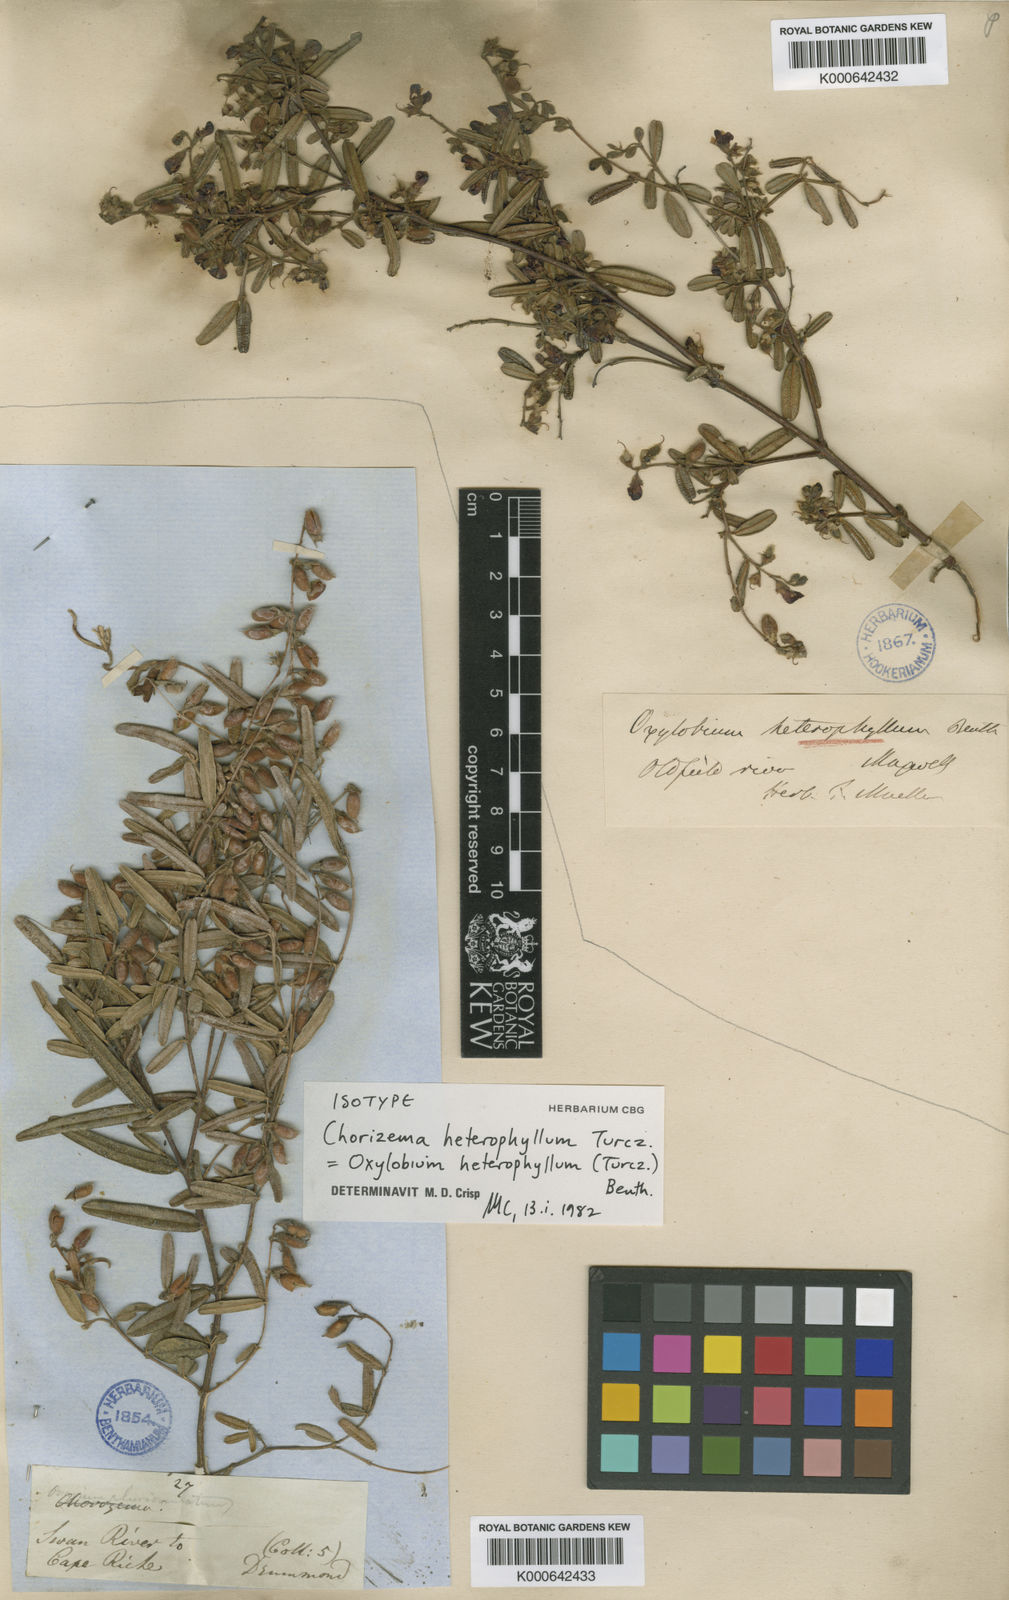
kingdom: Plantae
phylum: Tracheophyta
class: Magnoliopsida
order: Fabales
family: Fabaceae
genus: Gastrolobium
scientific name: Gastrolobium heterophyllum
